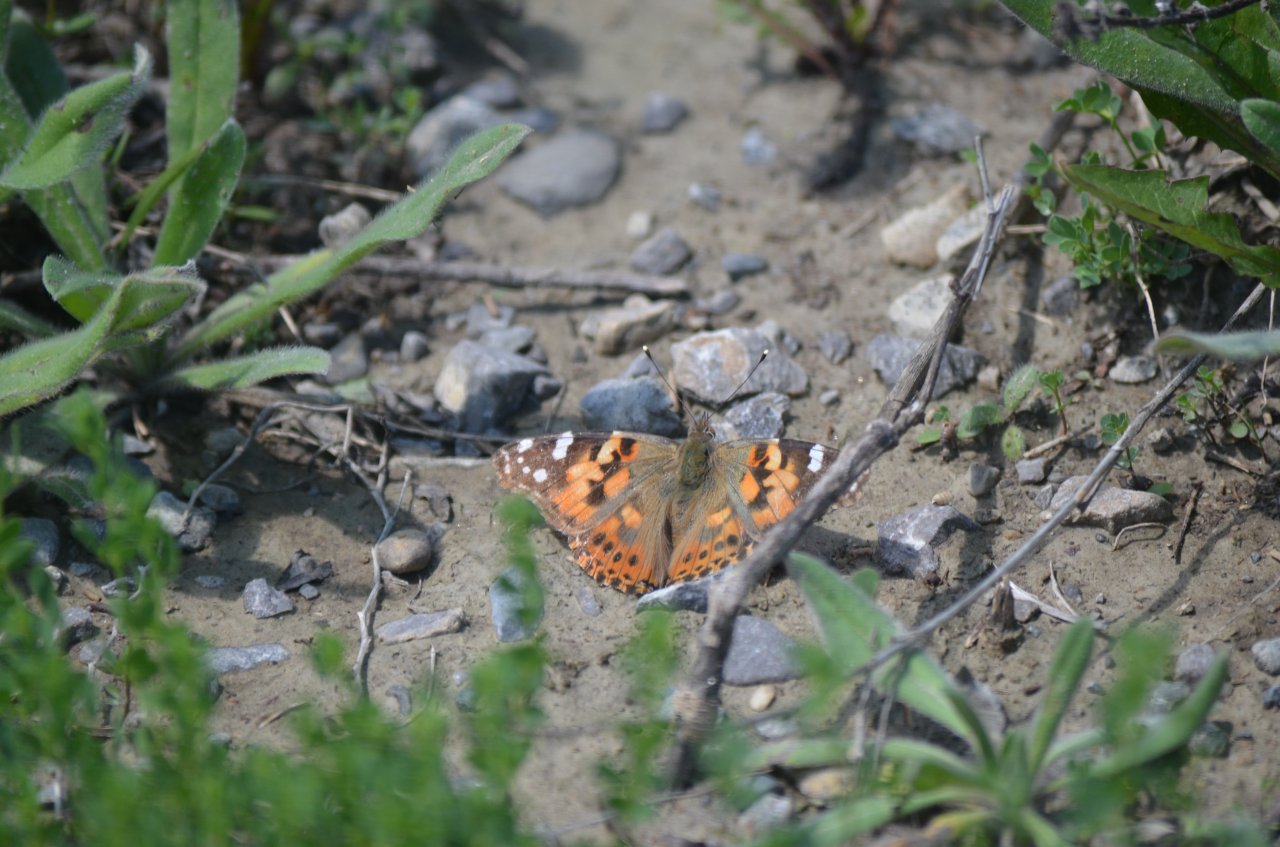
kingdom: Animalia
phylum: Arthropoda
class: Insecta
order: Lepidoptera
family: Nymphalidae
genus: Vanessa
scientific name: Vanessa cardui
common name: Painted Lady
